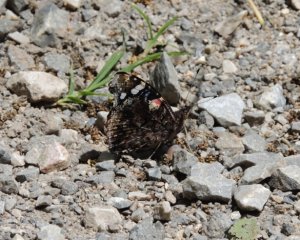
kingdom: Animalia
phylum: Arthropoda
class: Insecta
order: Lepidoptera
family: Nymphalidae
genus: Vanessa
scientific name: Vanessa atalanta
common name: Red Admiral
